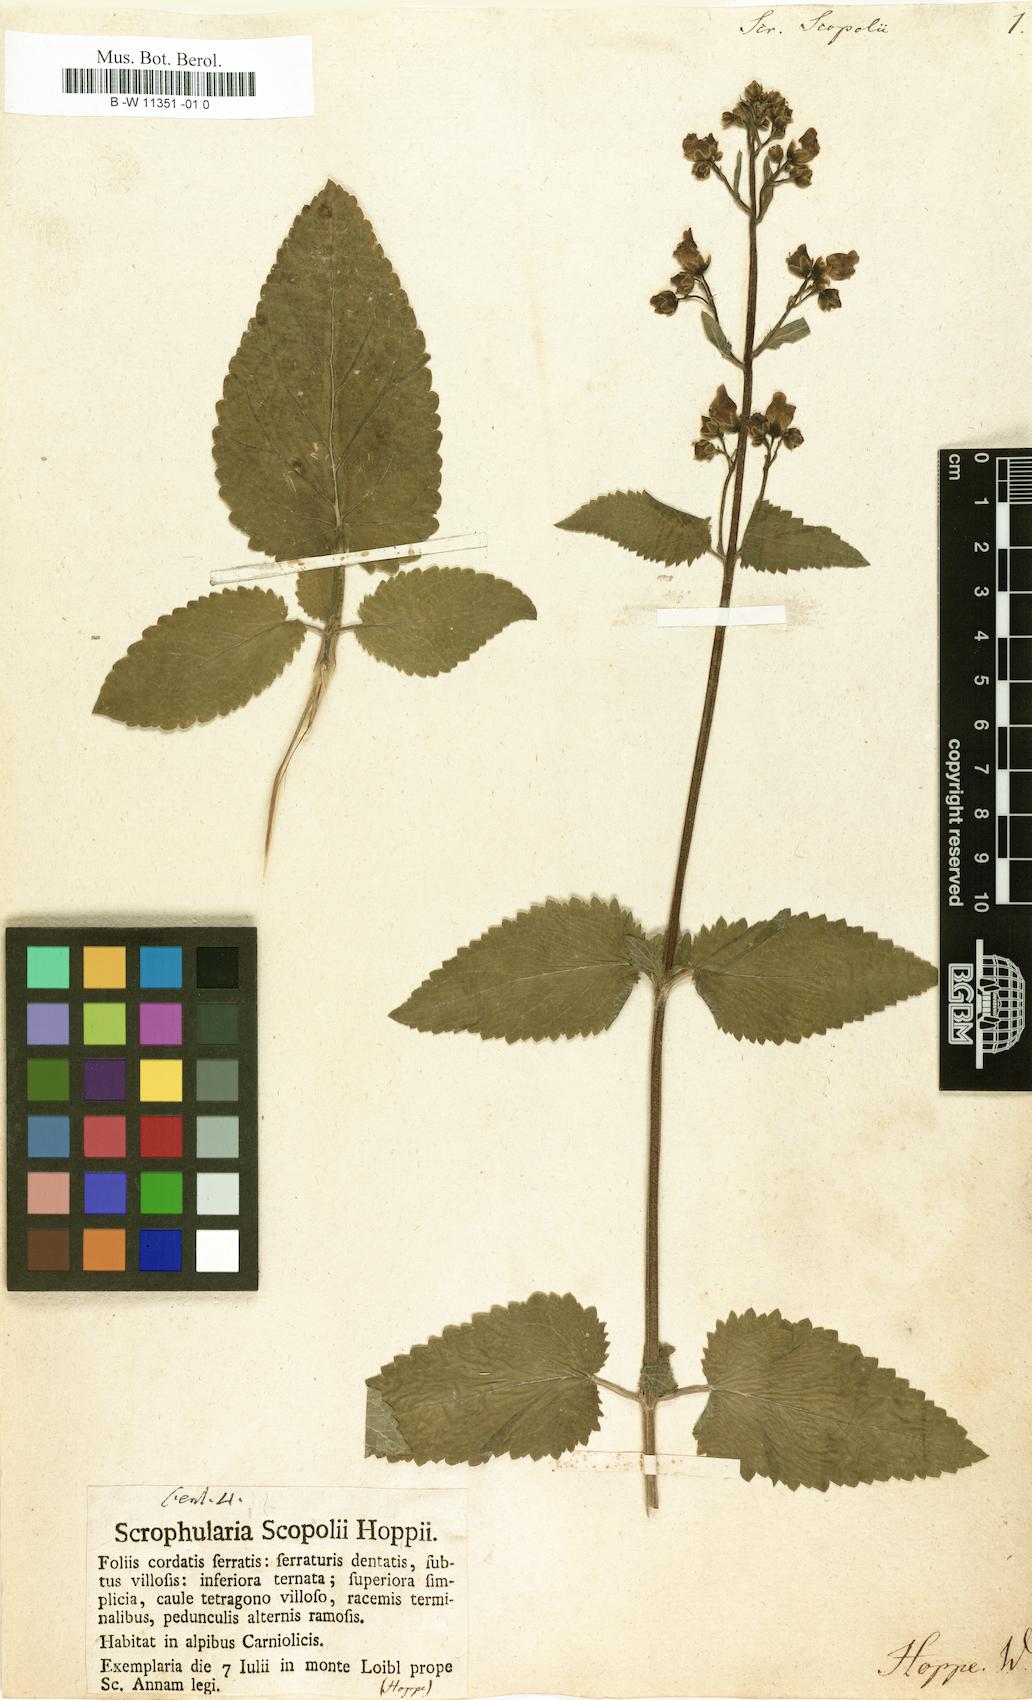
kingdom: Plantae
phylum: Tracheophyta
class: Magnoliopsida
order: Lamiales
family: Scrophulariaceae
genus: Scrophularia
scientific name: Scrophularia scopolii
